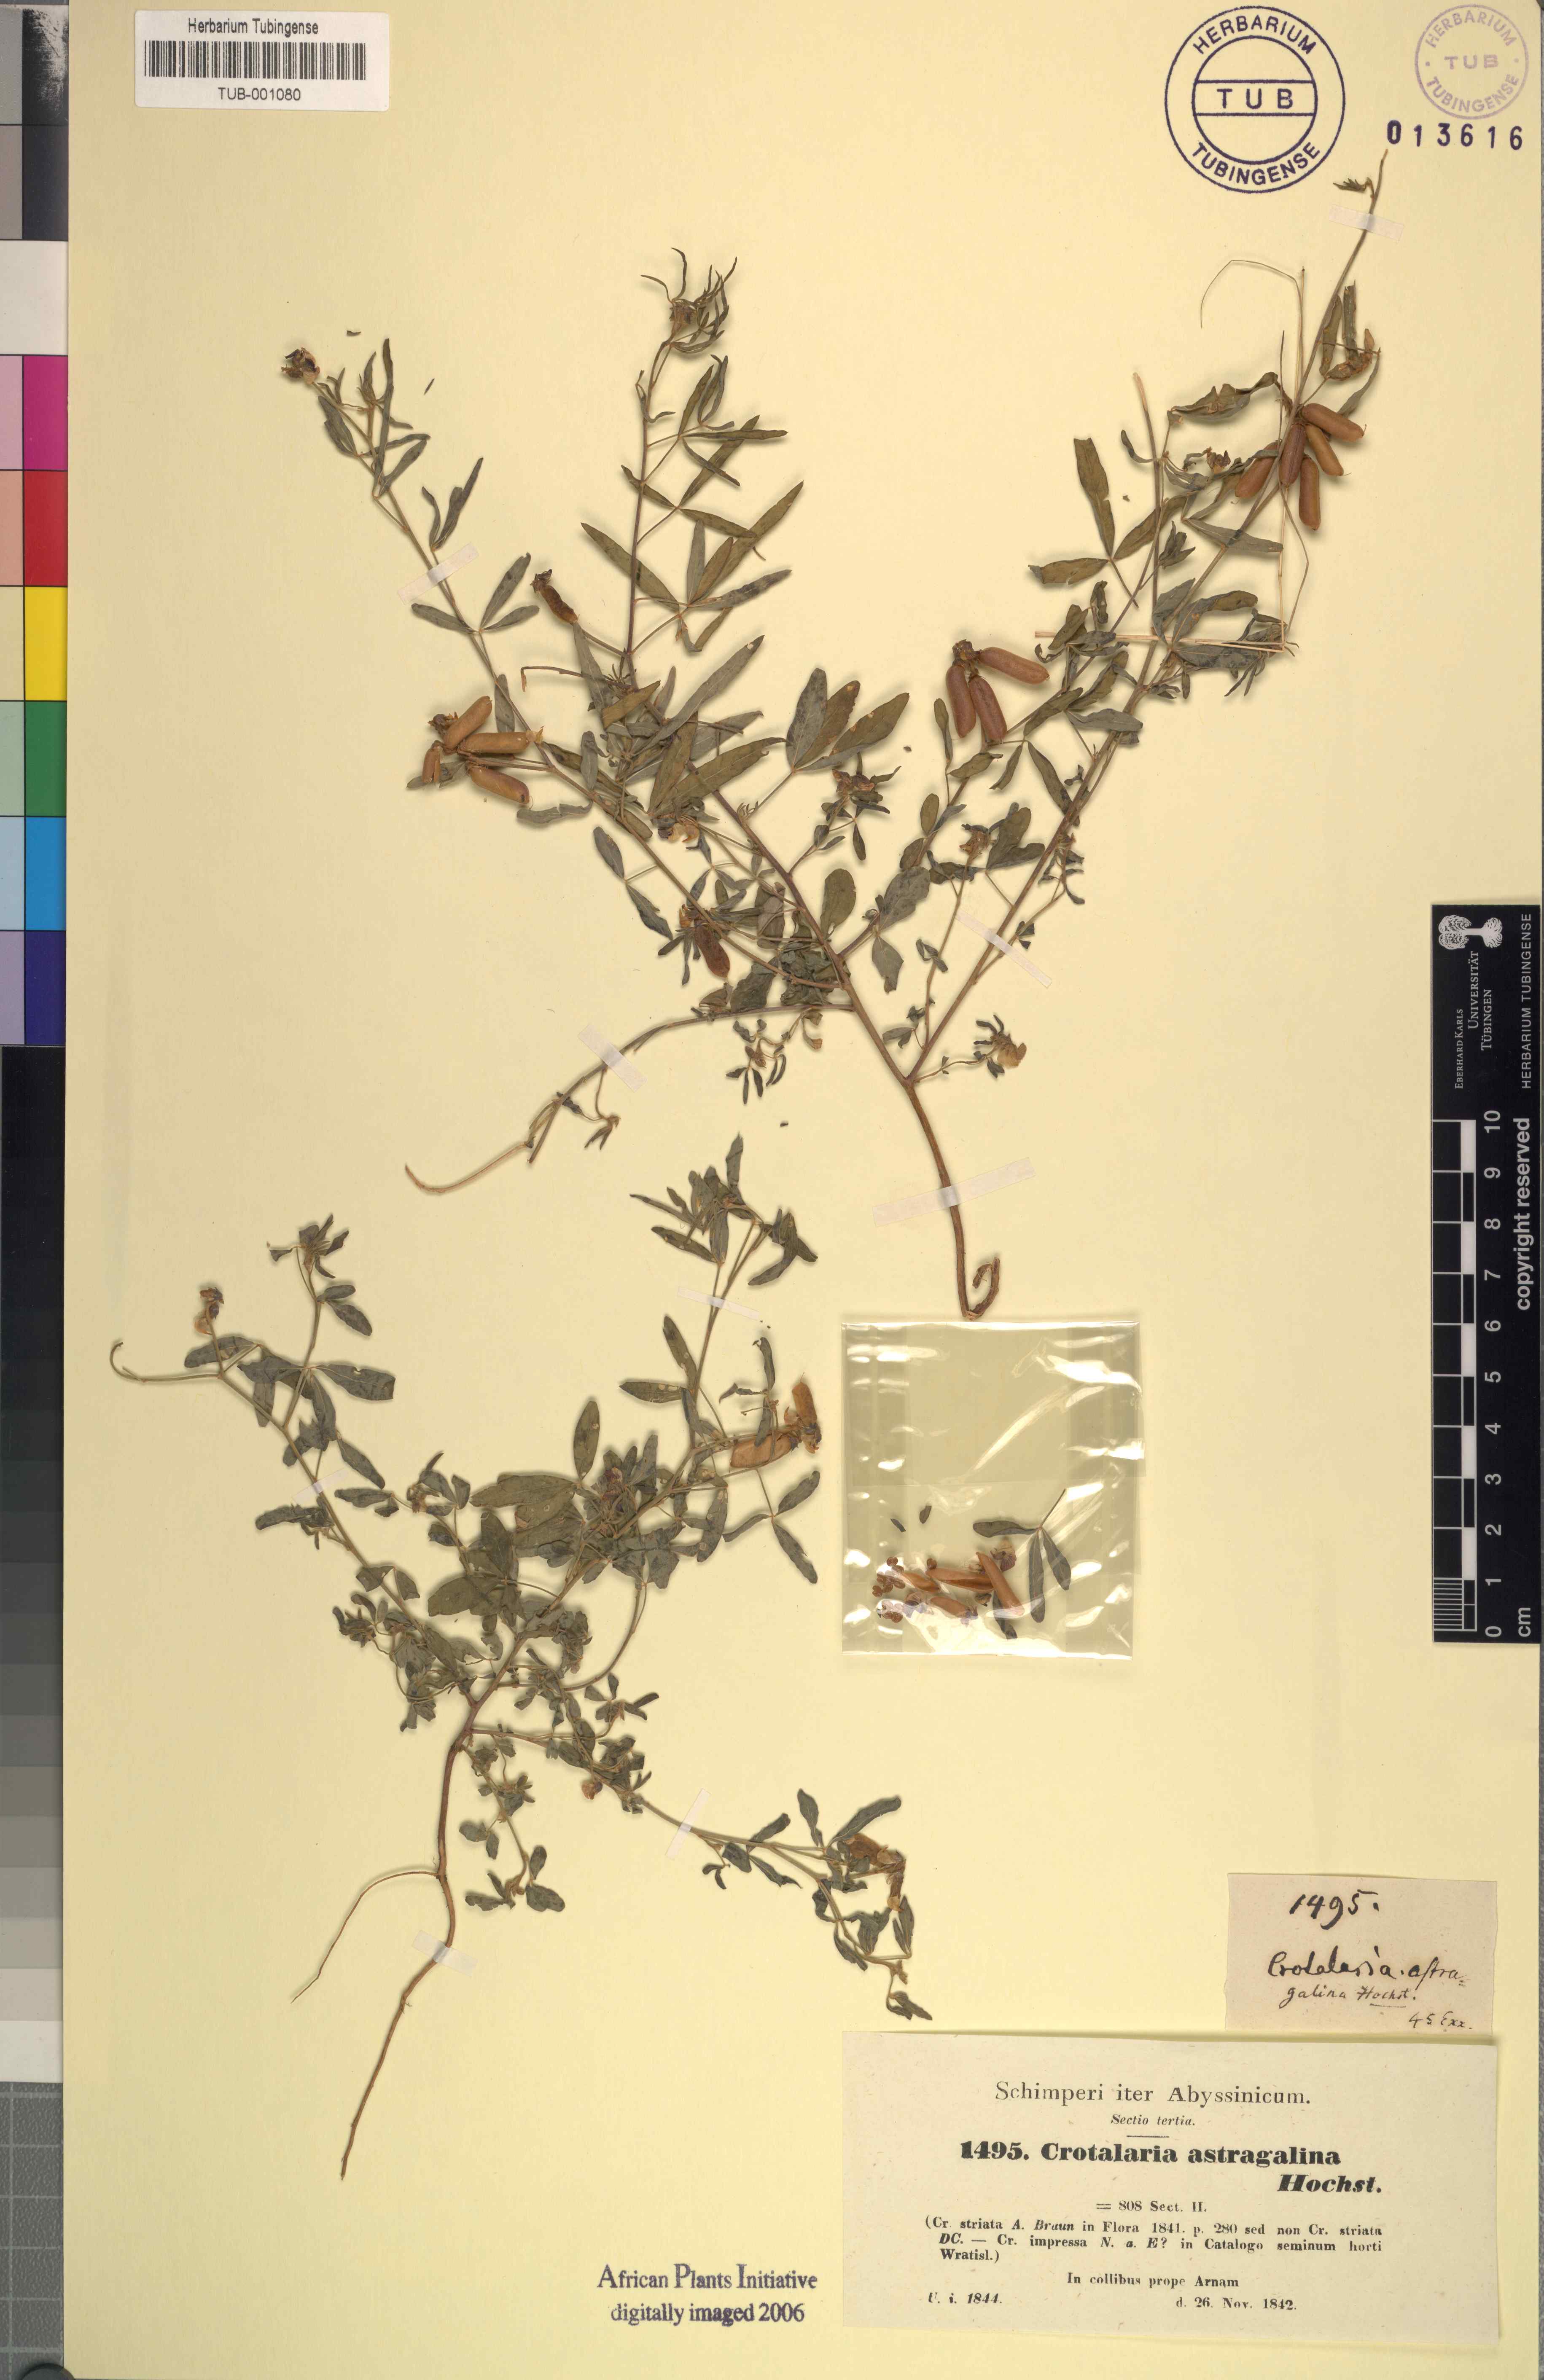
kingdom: Plantae
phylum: Tracheophyta
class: Magnoliopsida
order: Fabales
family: Fabaceae
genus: Crotalaria
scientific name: Crotalaria impressa
